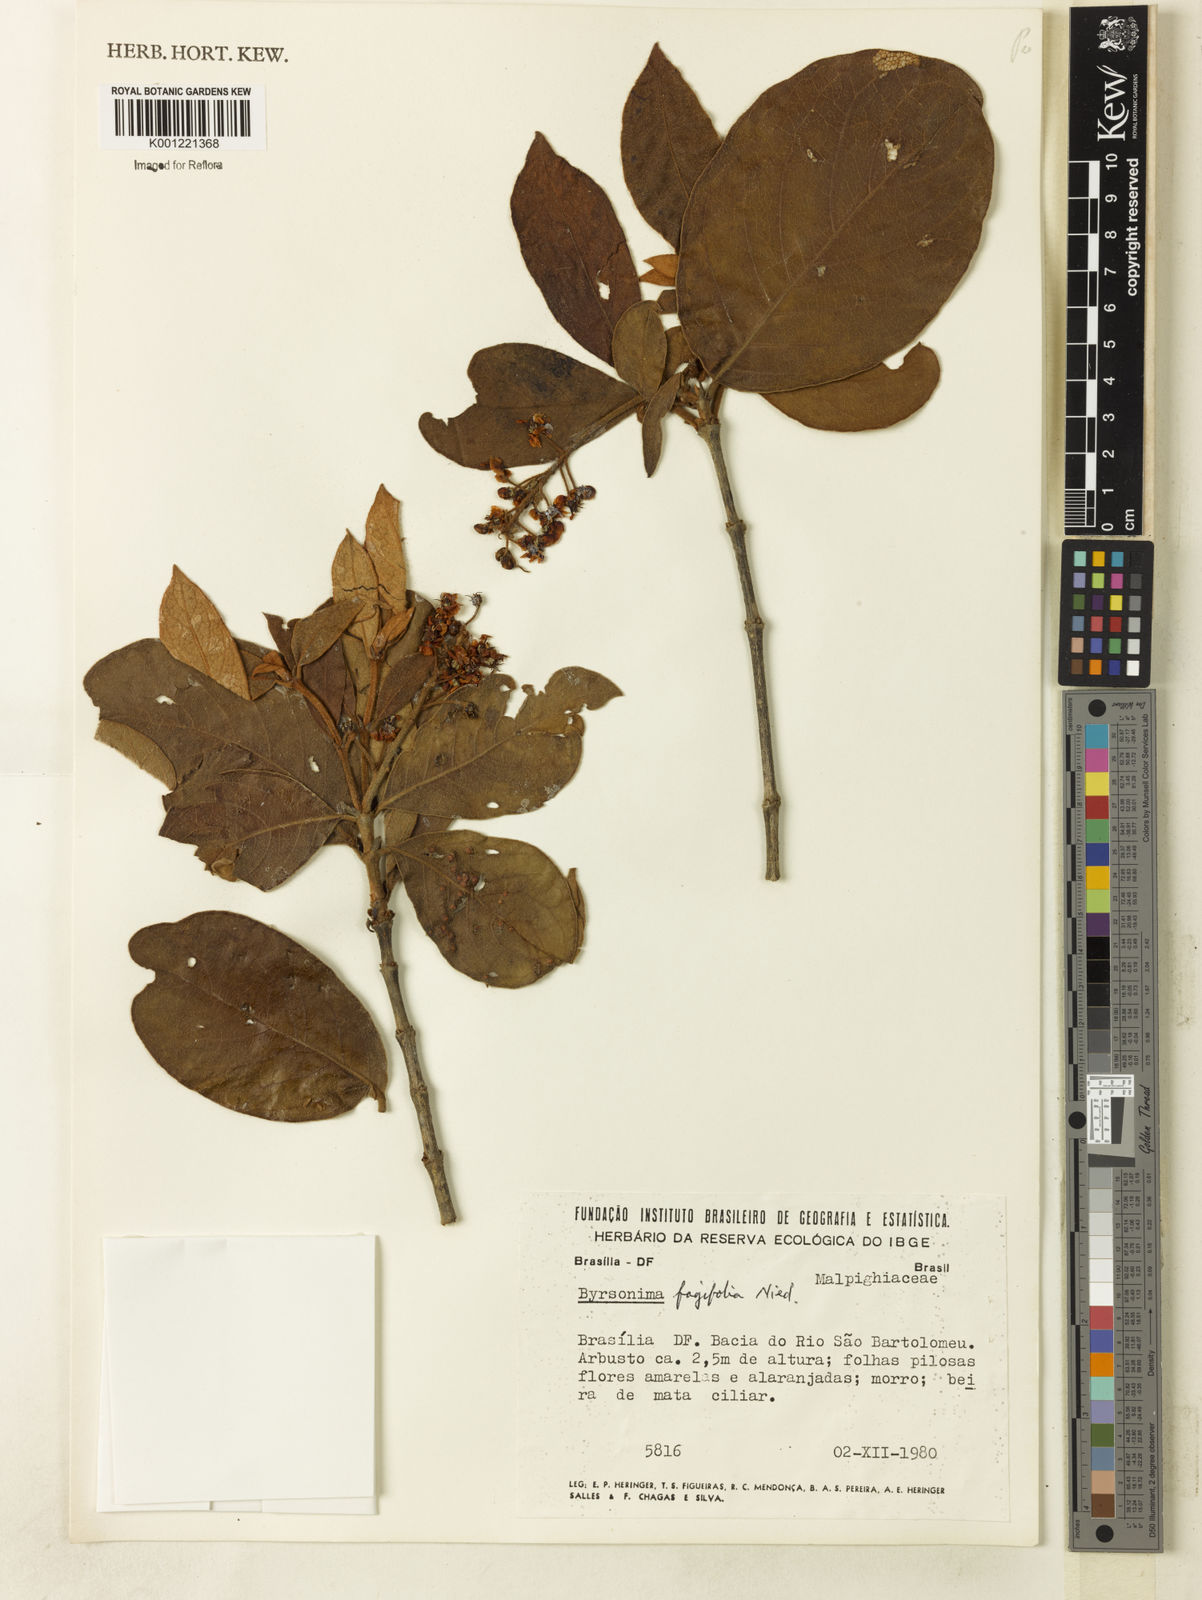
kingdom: Plantae
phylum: Tracheophyta
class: Magnoliopsida
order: Malpighiales
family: Malpighiaceae
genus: Byrsonima
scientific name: Byrsonima crassifolia
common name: Golden spoon
